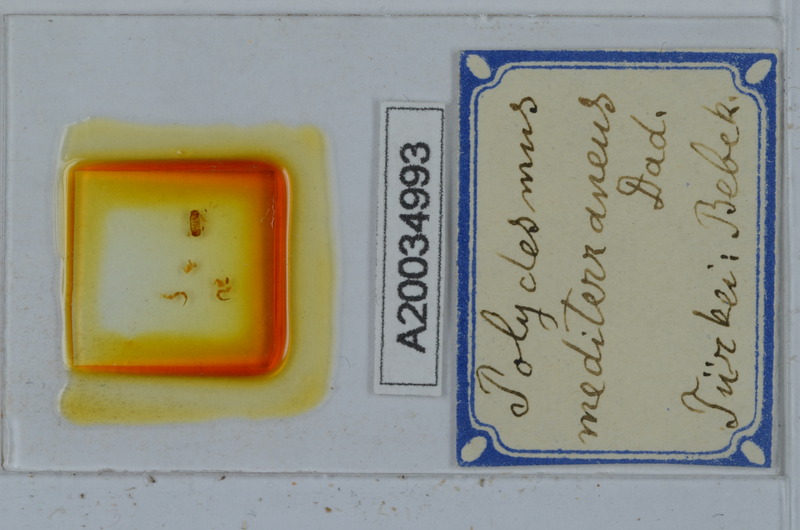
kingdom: Animalia
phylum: Arthropoda
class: Diplopoda
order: Polydesmida
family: Polydesmidae
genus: Polydesmus
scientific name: Polydesmus mediterraneus
